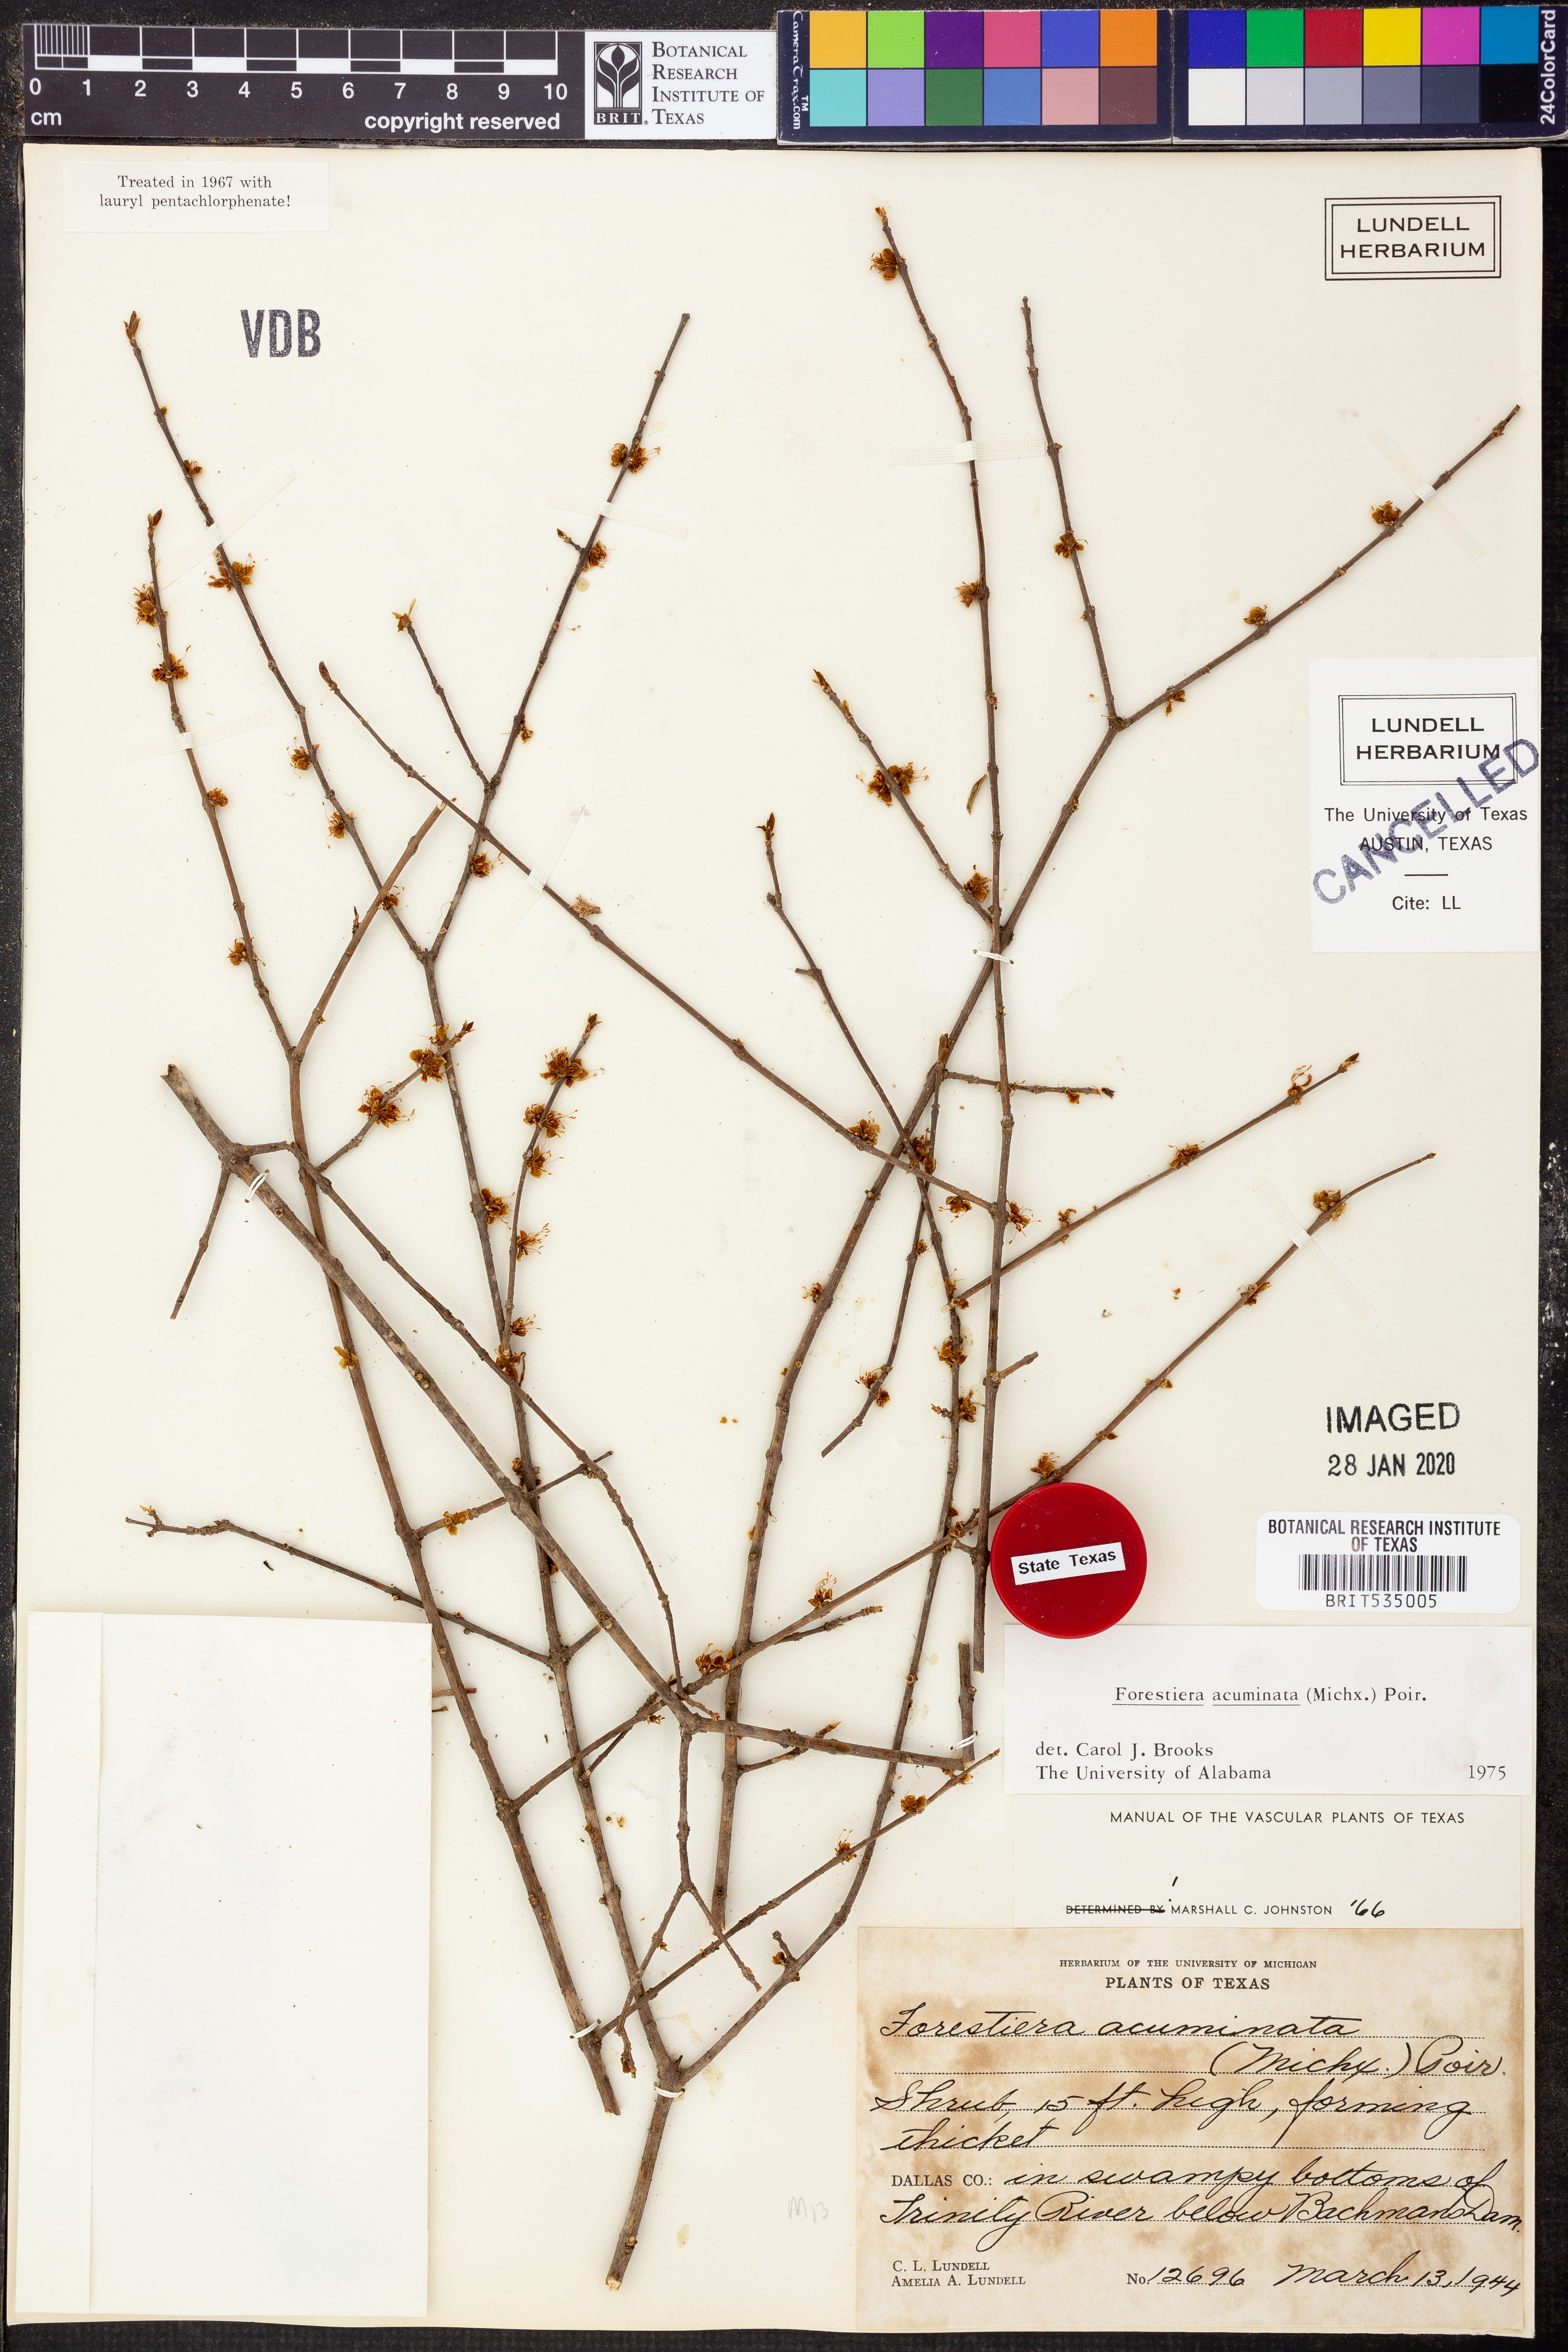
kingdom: Plantae
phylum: Tracheophyta
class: Magnoliopsida
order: Lamiales
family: Oleaceae
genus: Forestiera
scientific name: Forestiera acuminata
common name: Swamp-privet
